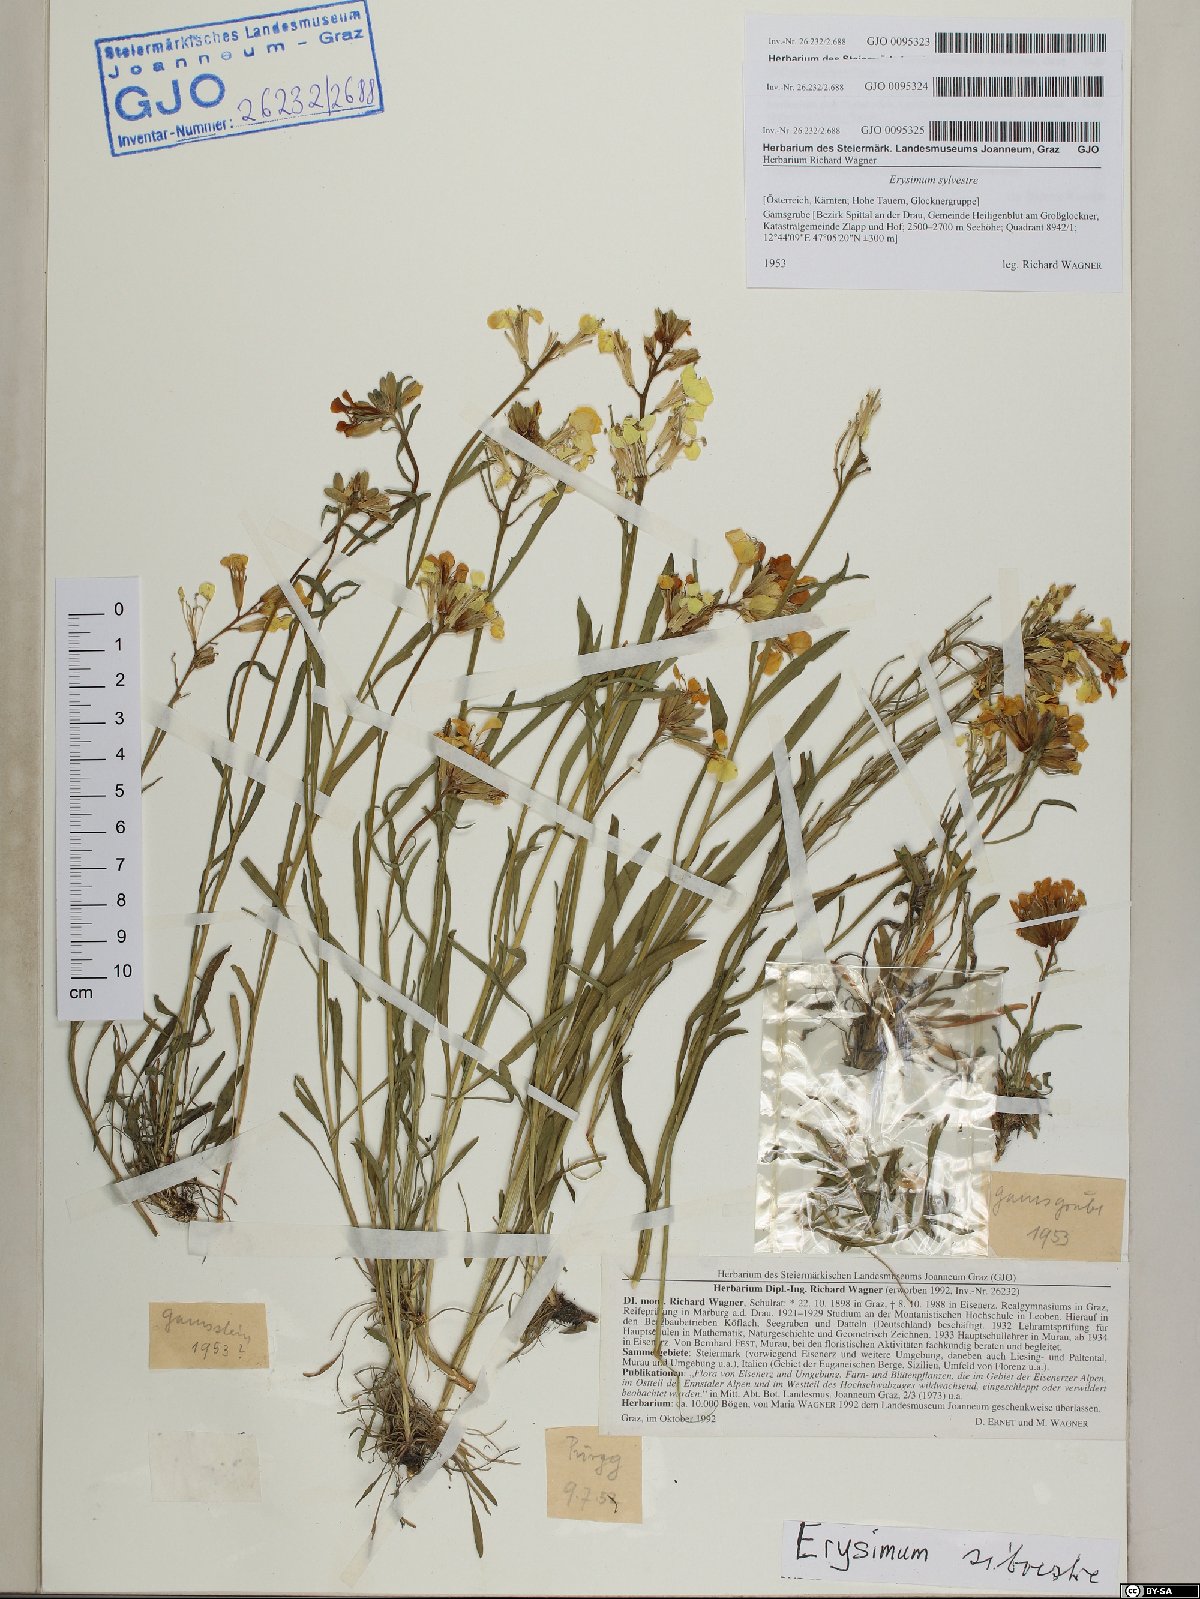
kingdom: Plantae
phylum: Tracheophyta
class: Magnoliopsida
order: Brassicales
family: Brassicaceae
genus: Erysimum
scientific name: Erysimum sylvestre
